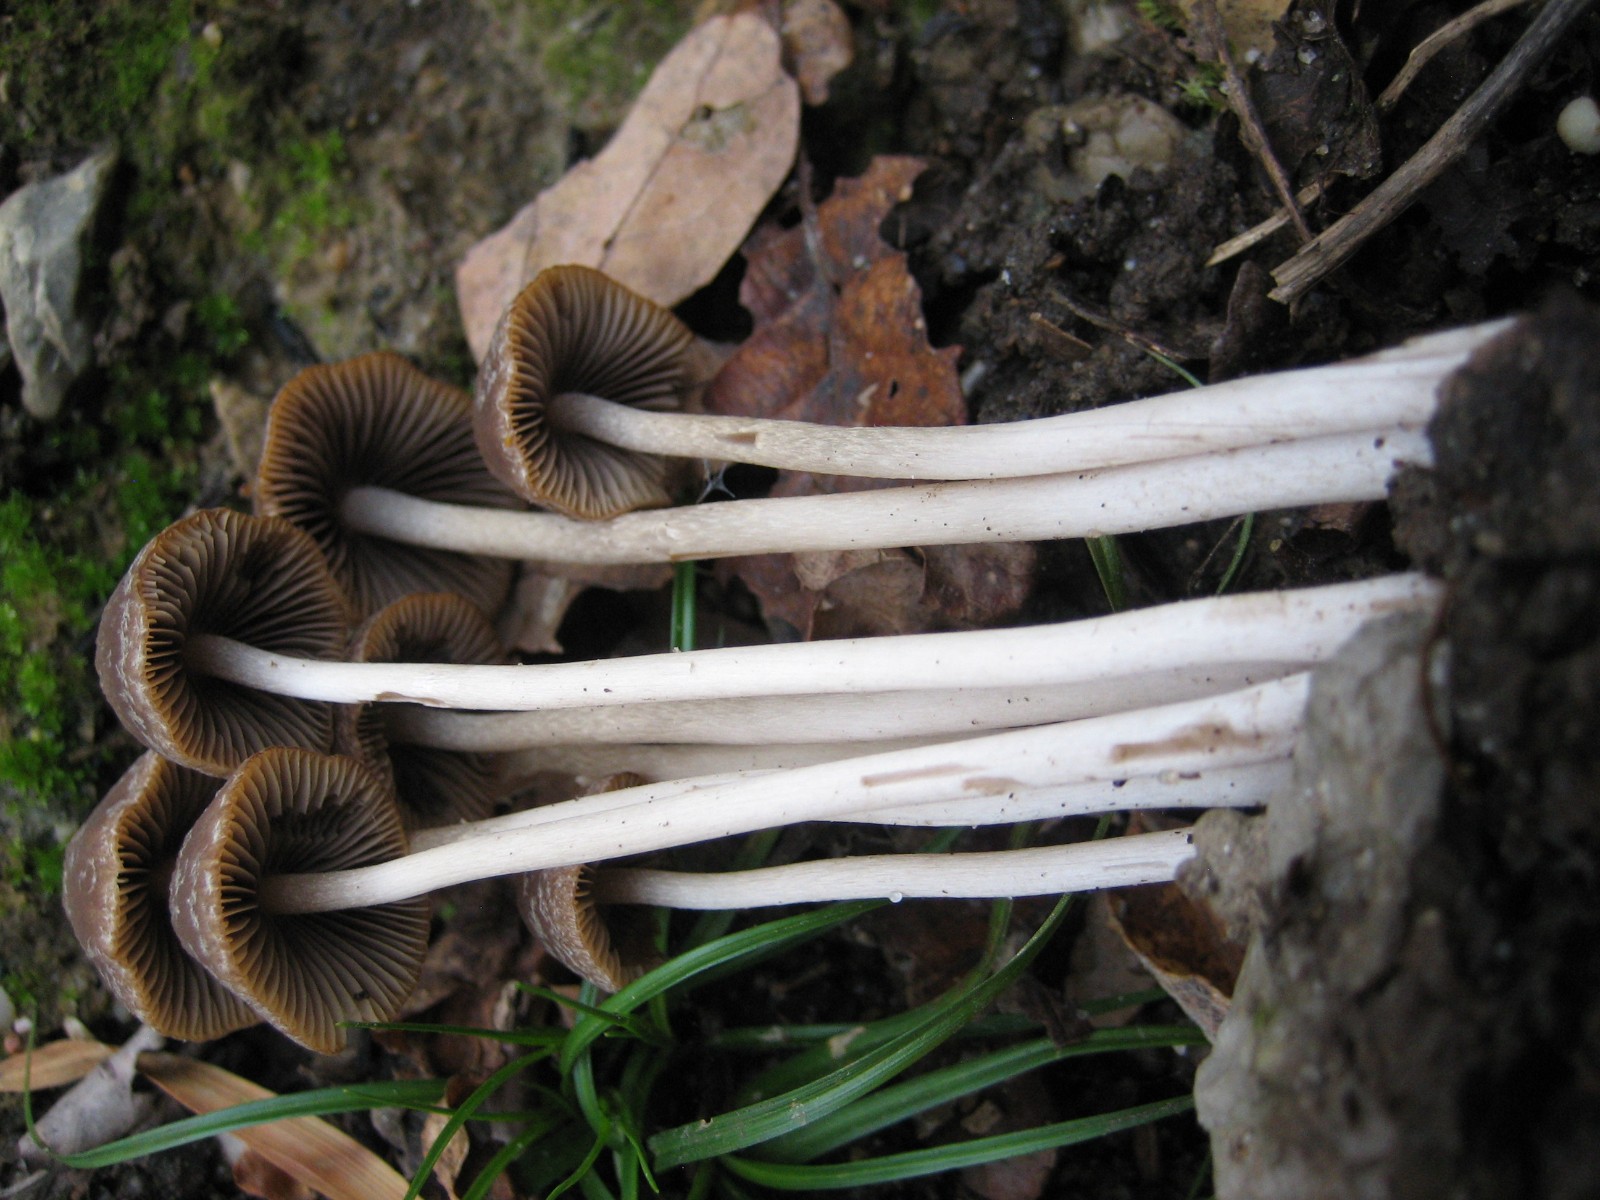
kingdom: Fungi
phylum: Basidiomycota
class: Agaricomycetes
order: Agaricales
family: Psathyrellaceae
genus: Psathyrella
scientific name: Psathyrella
